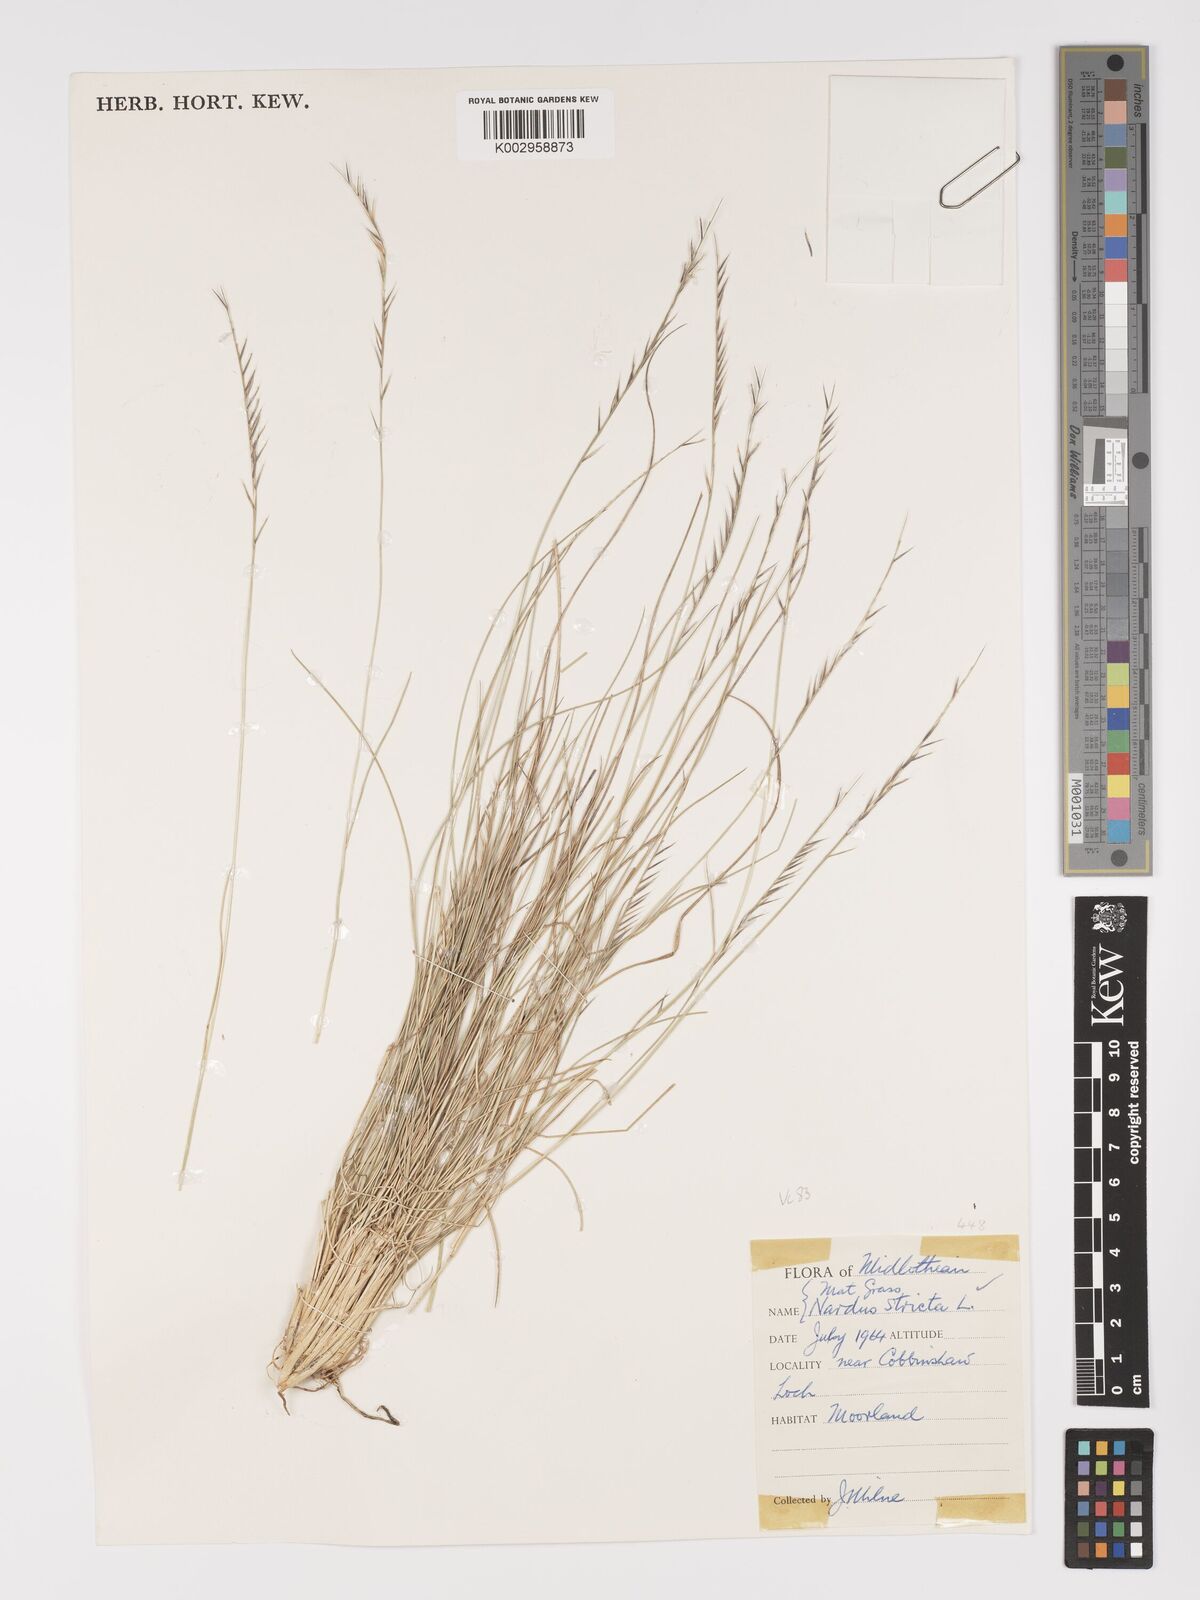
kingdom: Plantae
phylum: Tracheophyta
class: Liliopsida
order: Poales
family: Poaceae
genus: Nardus
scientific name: Nardus stricta
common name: Mat-grass
